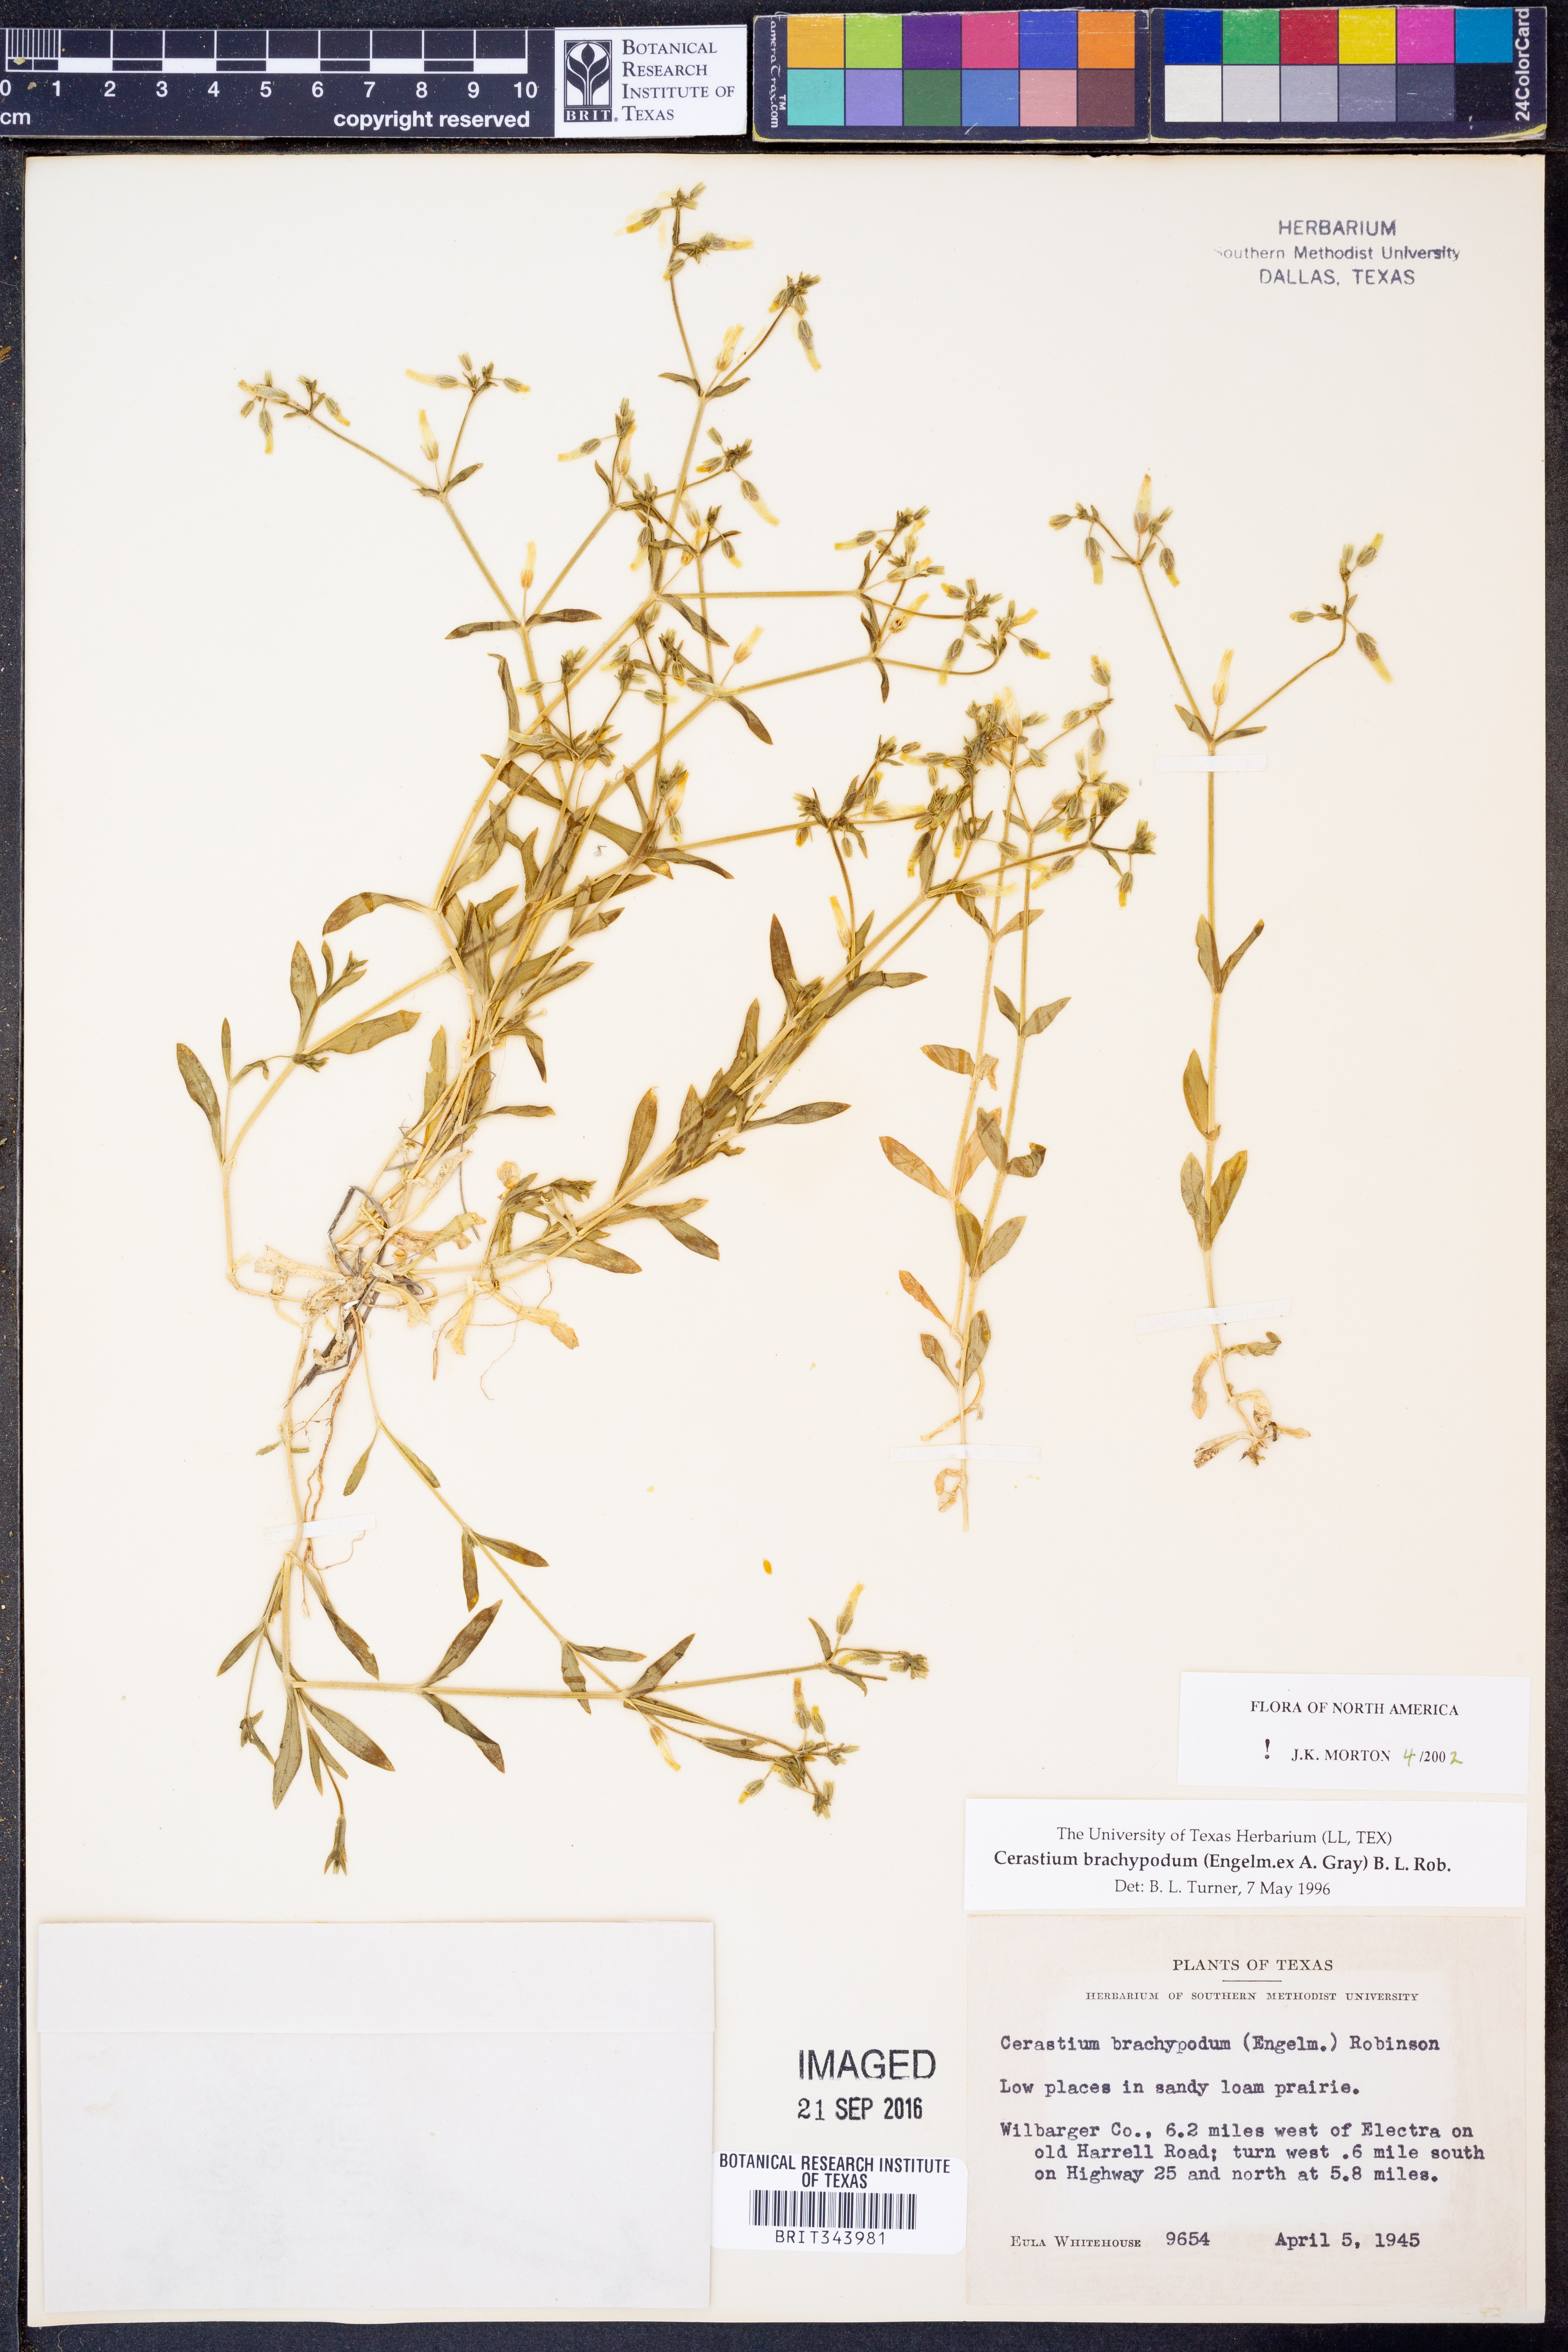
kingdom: Plantae
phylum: Tracheophyta
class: Magnoliopsida
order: Caryophyllales
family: Caryophyllaceae
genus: Cerastium
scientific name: Cerastium brachypodum
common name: Short-pedicelled nodding chickweed
